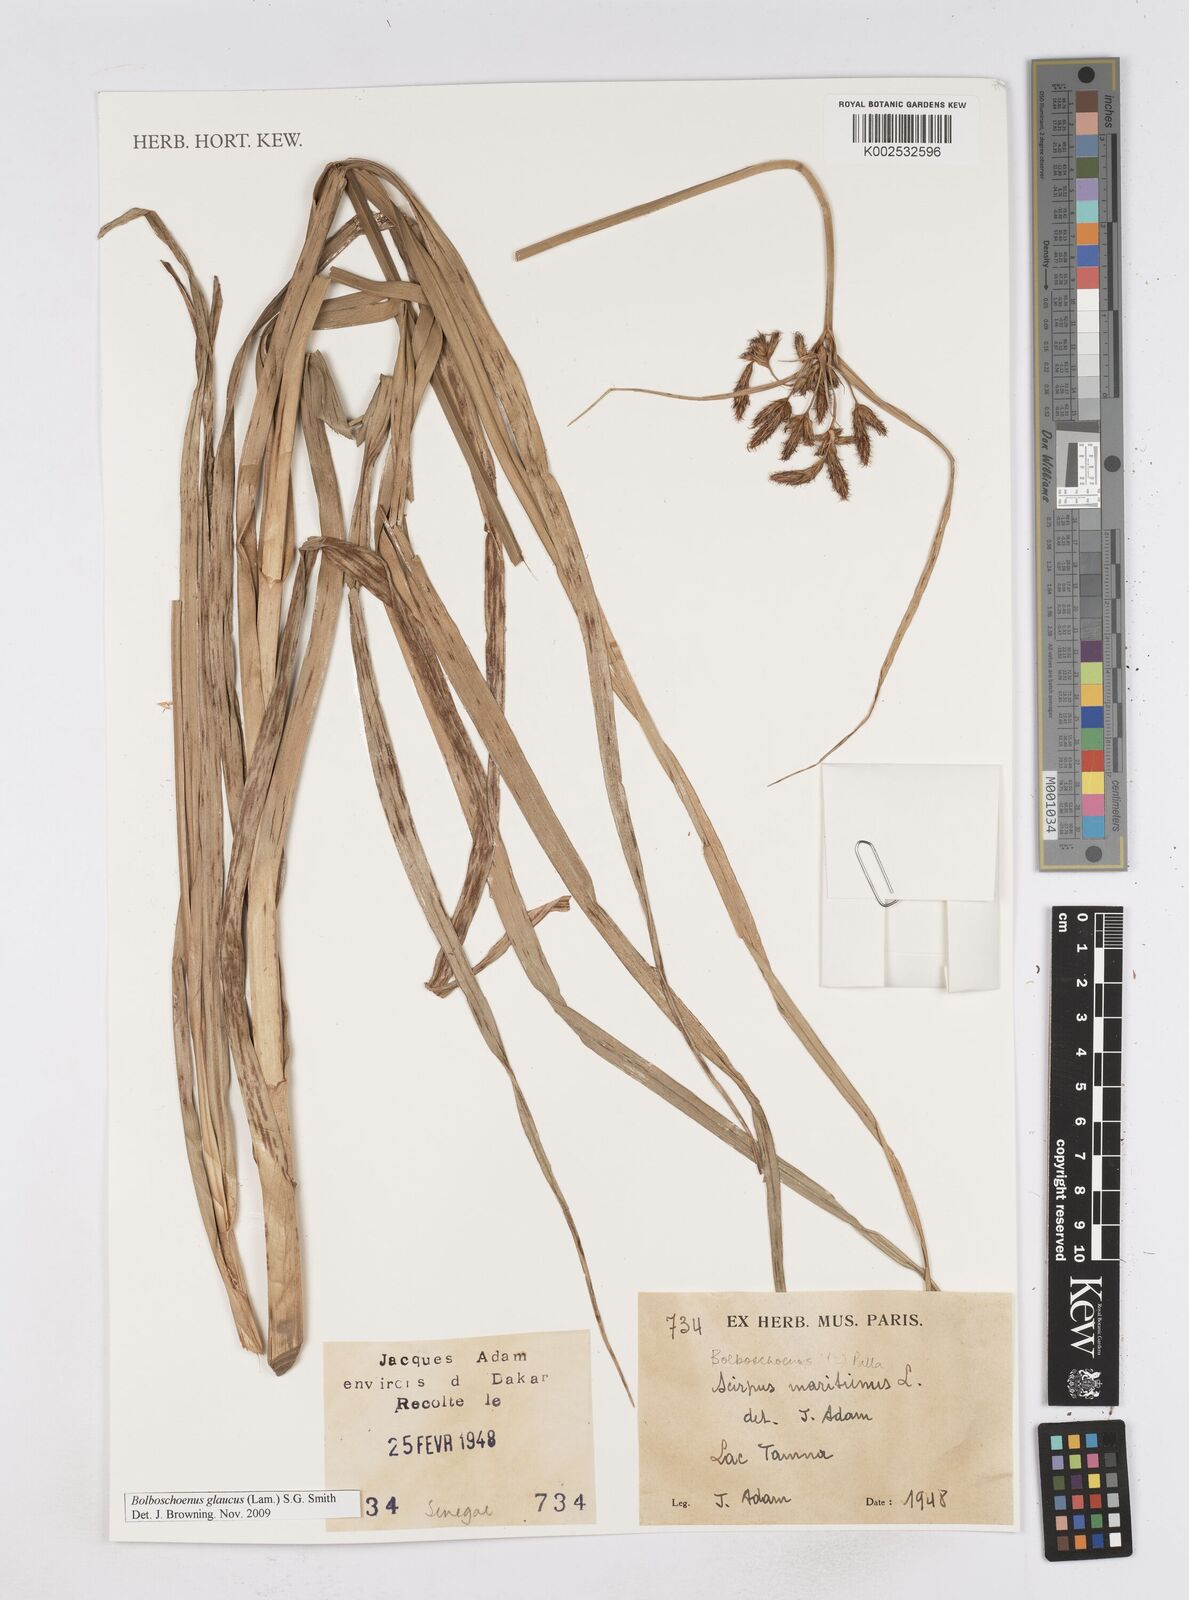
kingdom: Plantae
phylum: Tracheophyta
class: Liliopsida
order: Poales
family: Cyperaceae
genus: Bolboschoenus
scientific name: Bolboschoenus glaucus
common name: Tuberous bulrush
